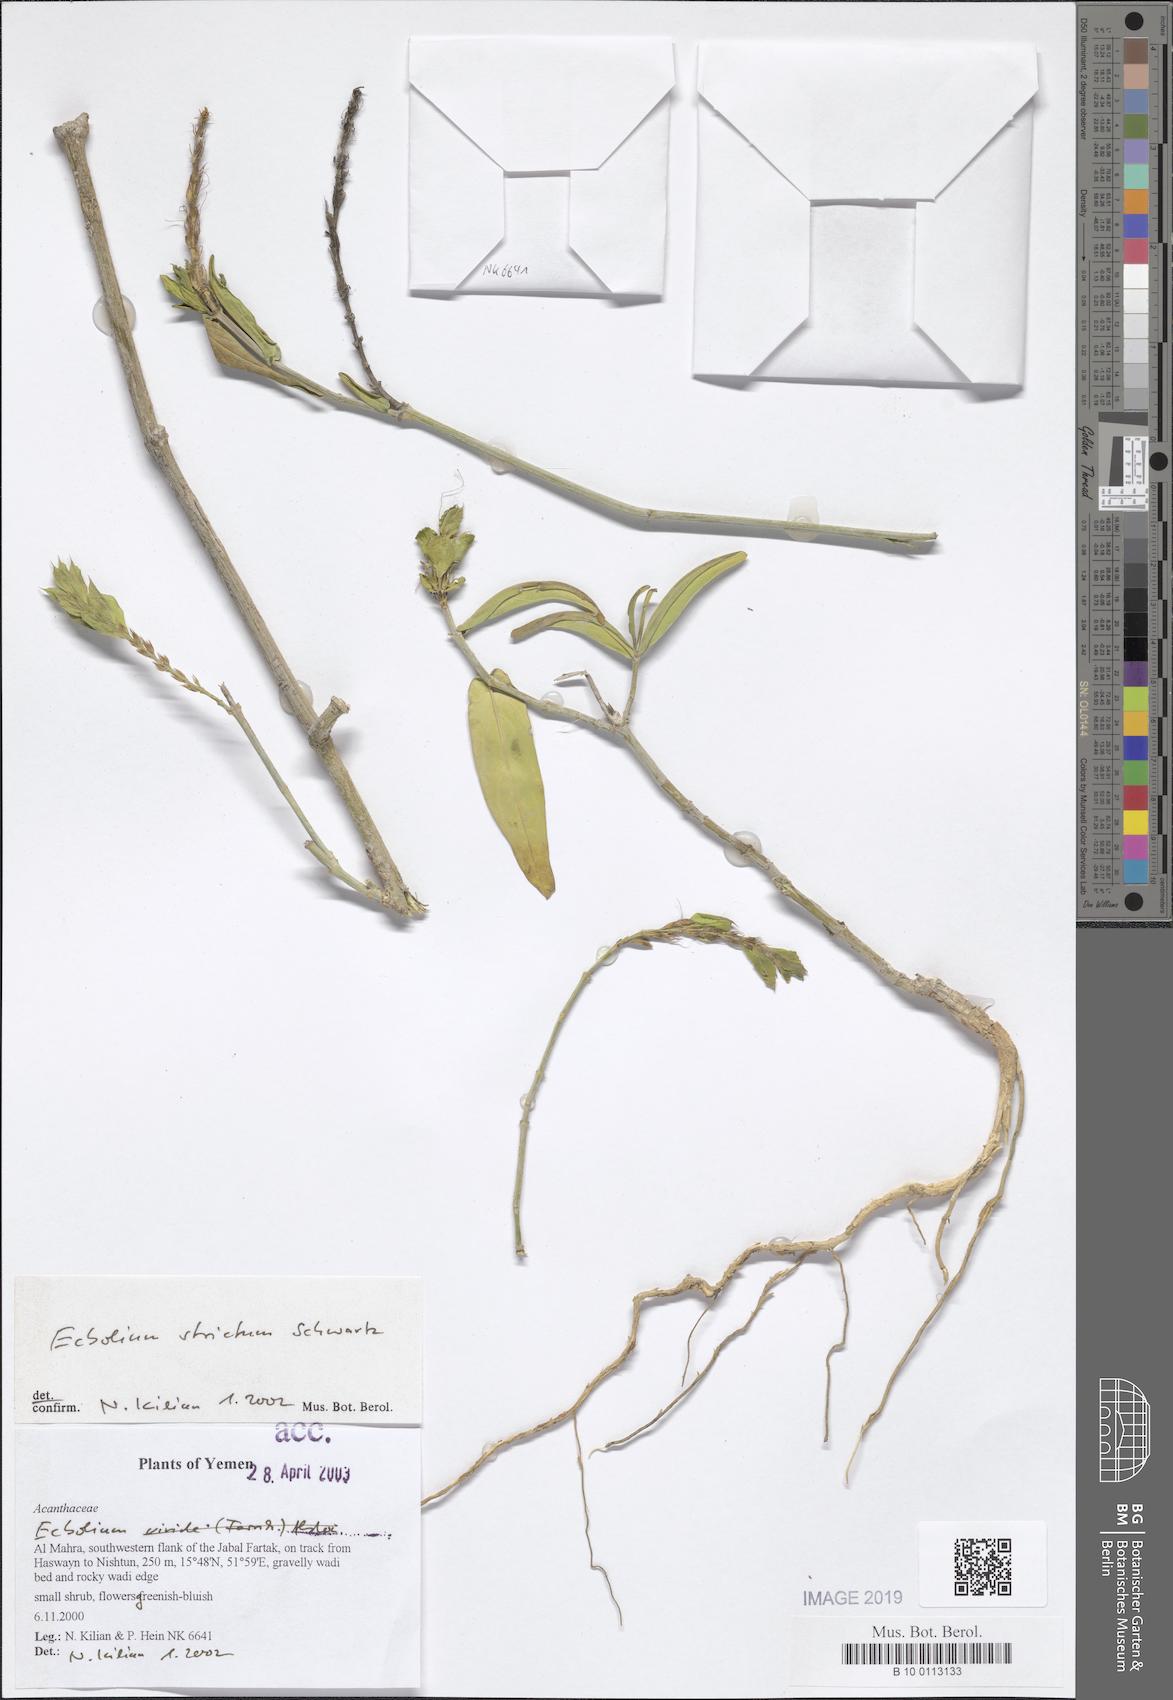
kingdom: Plantae
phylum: Tracheophyta
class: Magnoliopsida
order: Lamiales
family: Acanthaceae
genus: Ecbolium
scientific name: Ecbolium strictum
